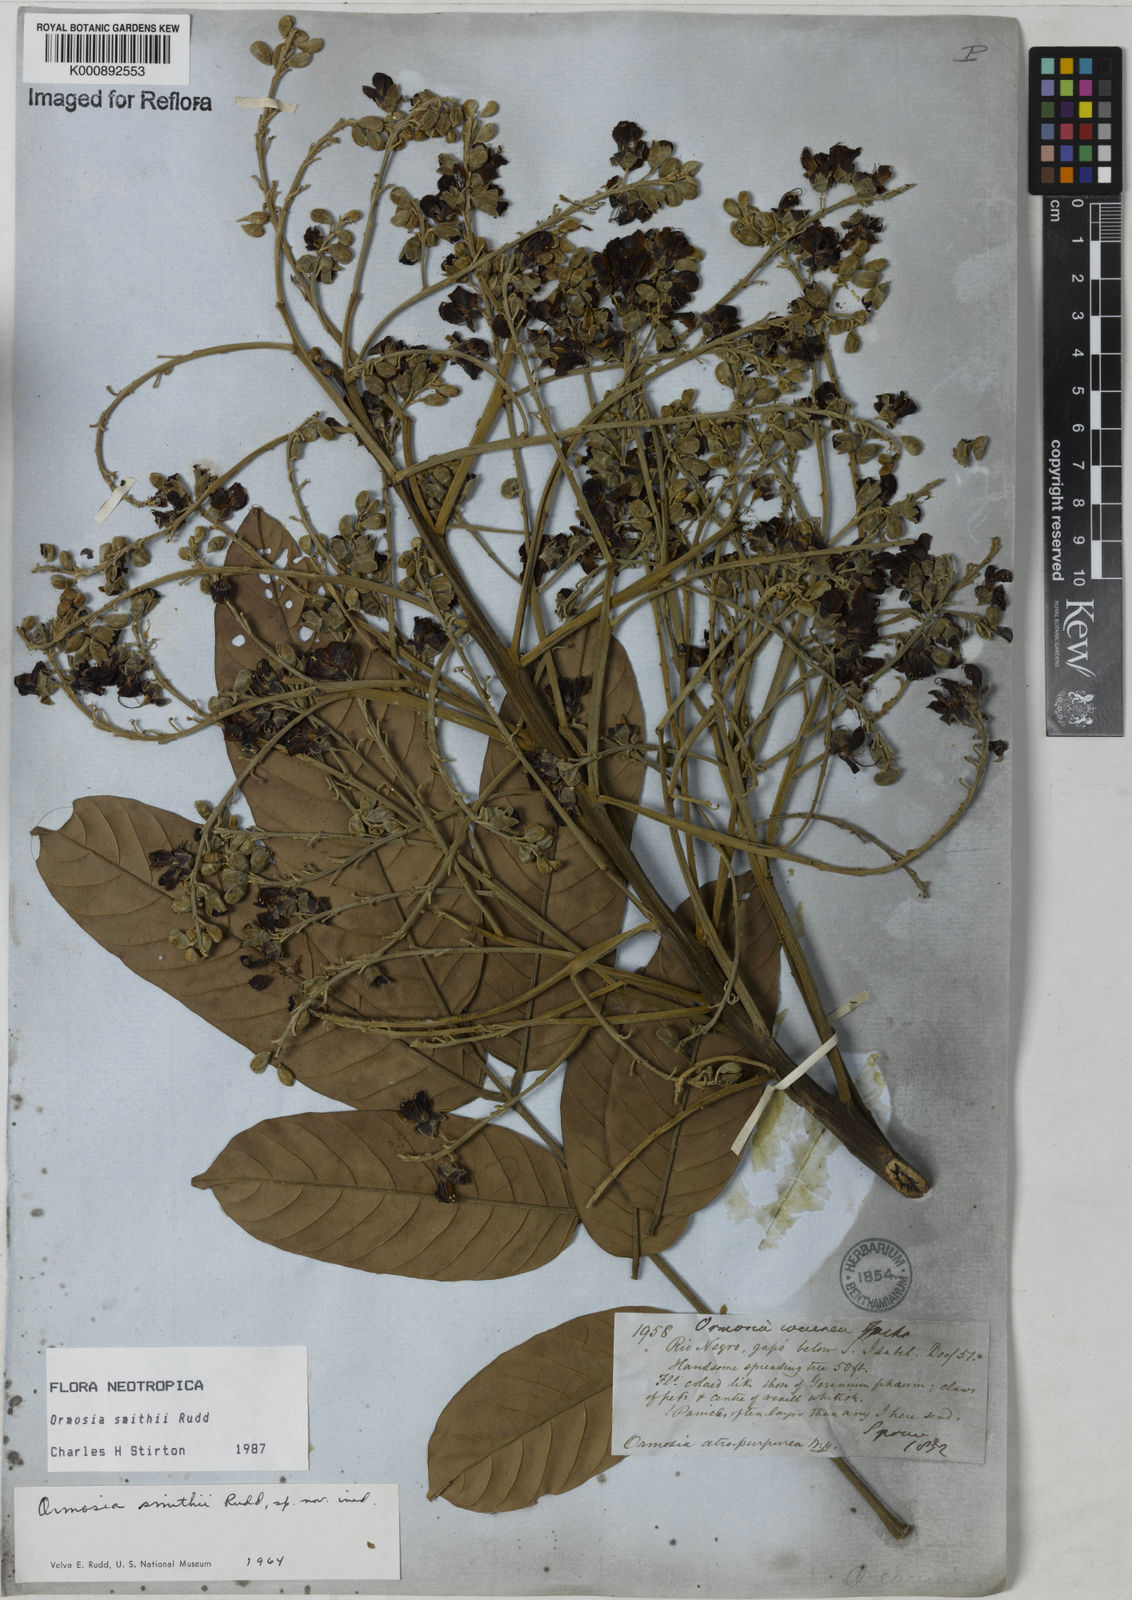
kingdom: Plantae
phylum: Tracheophyta
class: Magnoliopsida
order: Fabales
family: Fabaceae
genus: Ormosia
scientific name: Ormosia smithii
